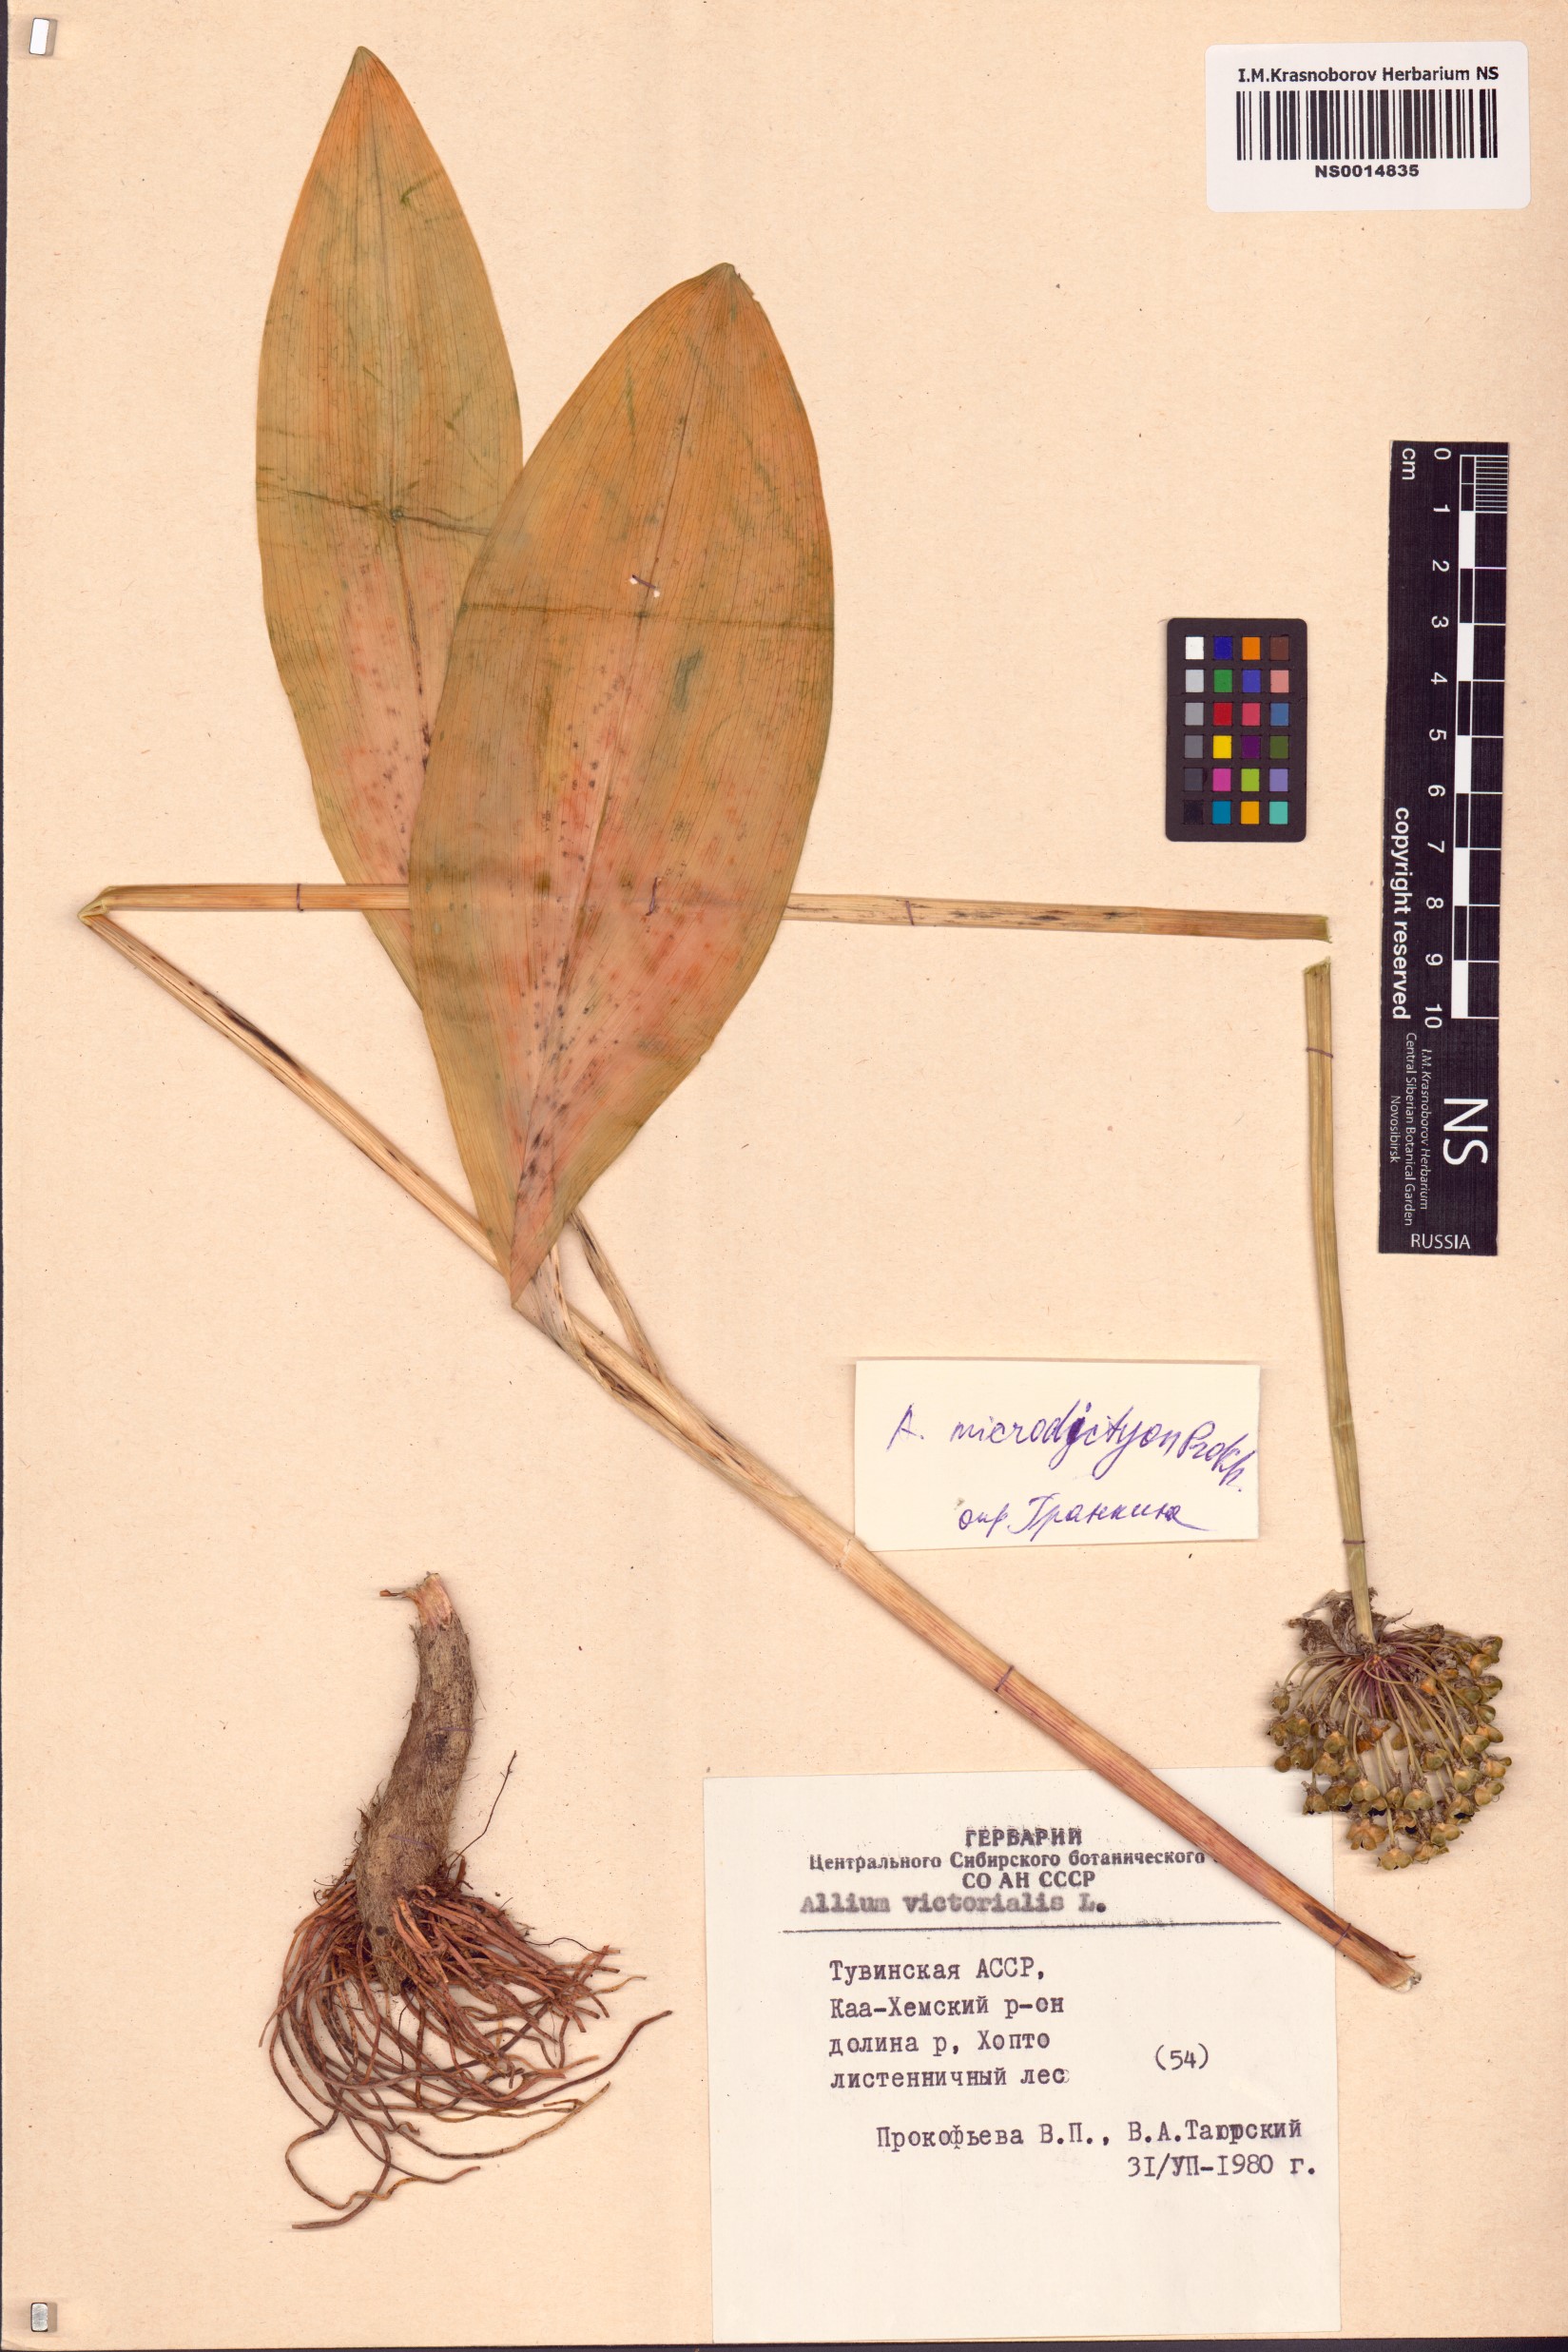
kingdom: Plantae
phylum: Tracheophyta
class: Liliopsida
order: Asparagales
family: Amaryllidaceae
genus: Allium
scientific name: Allium microdictyon
